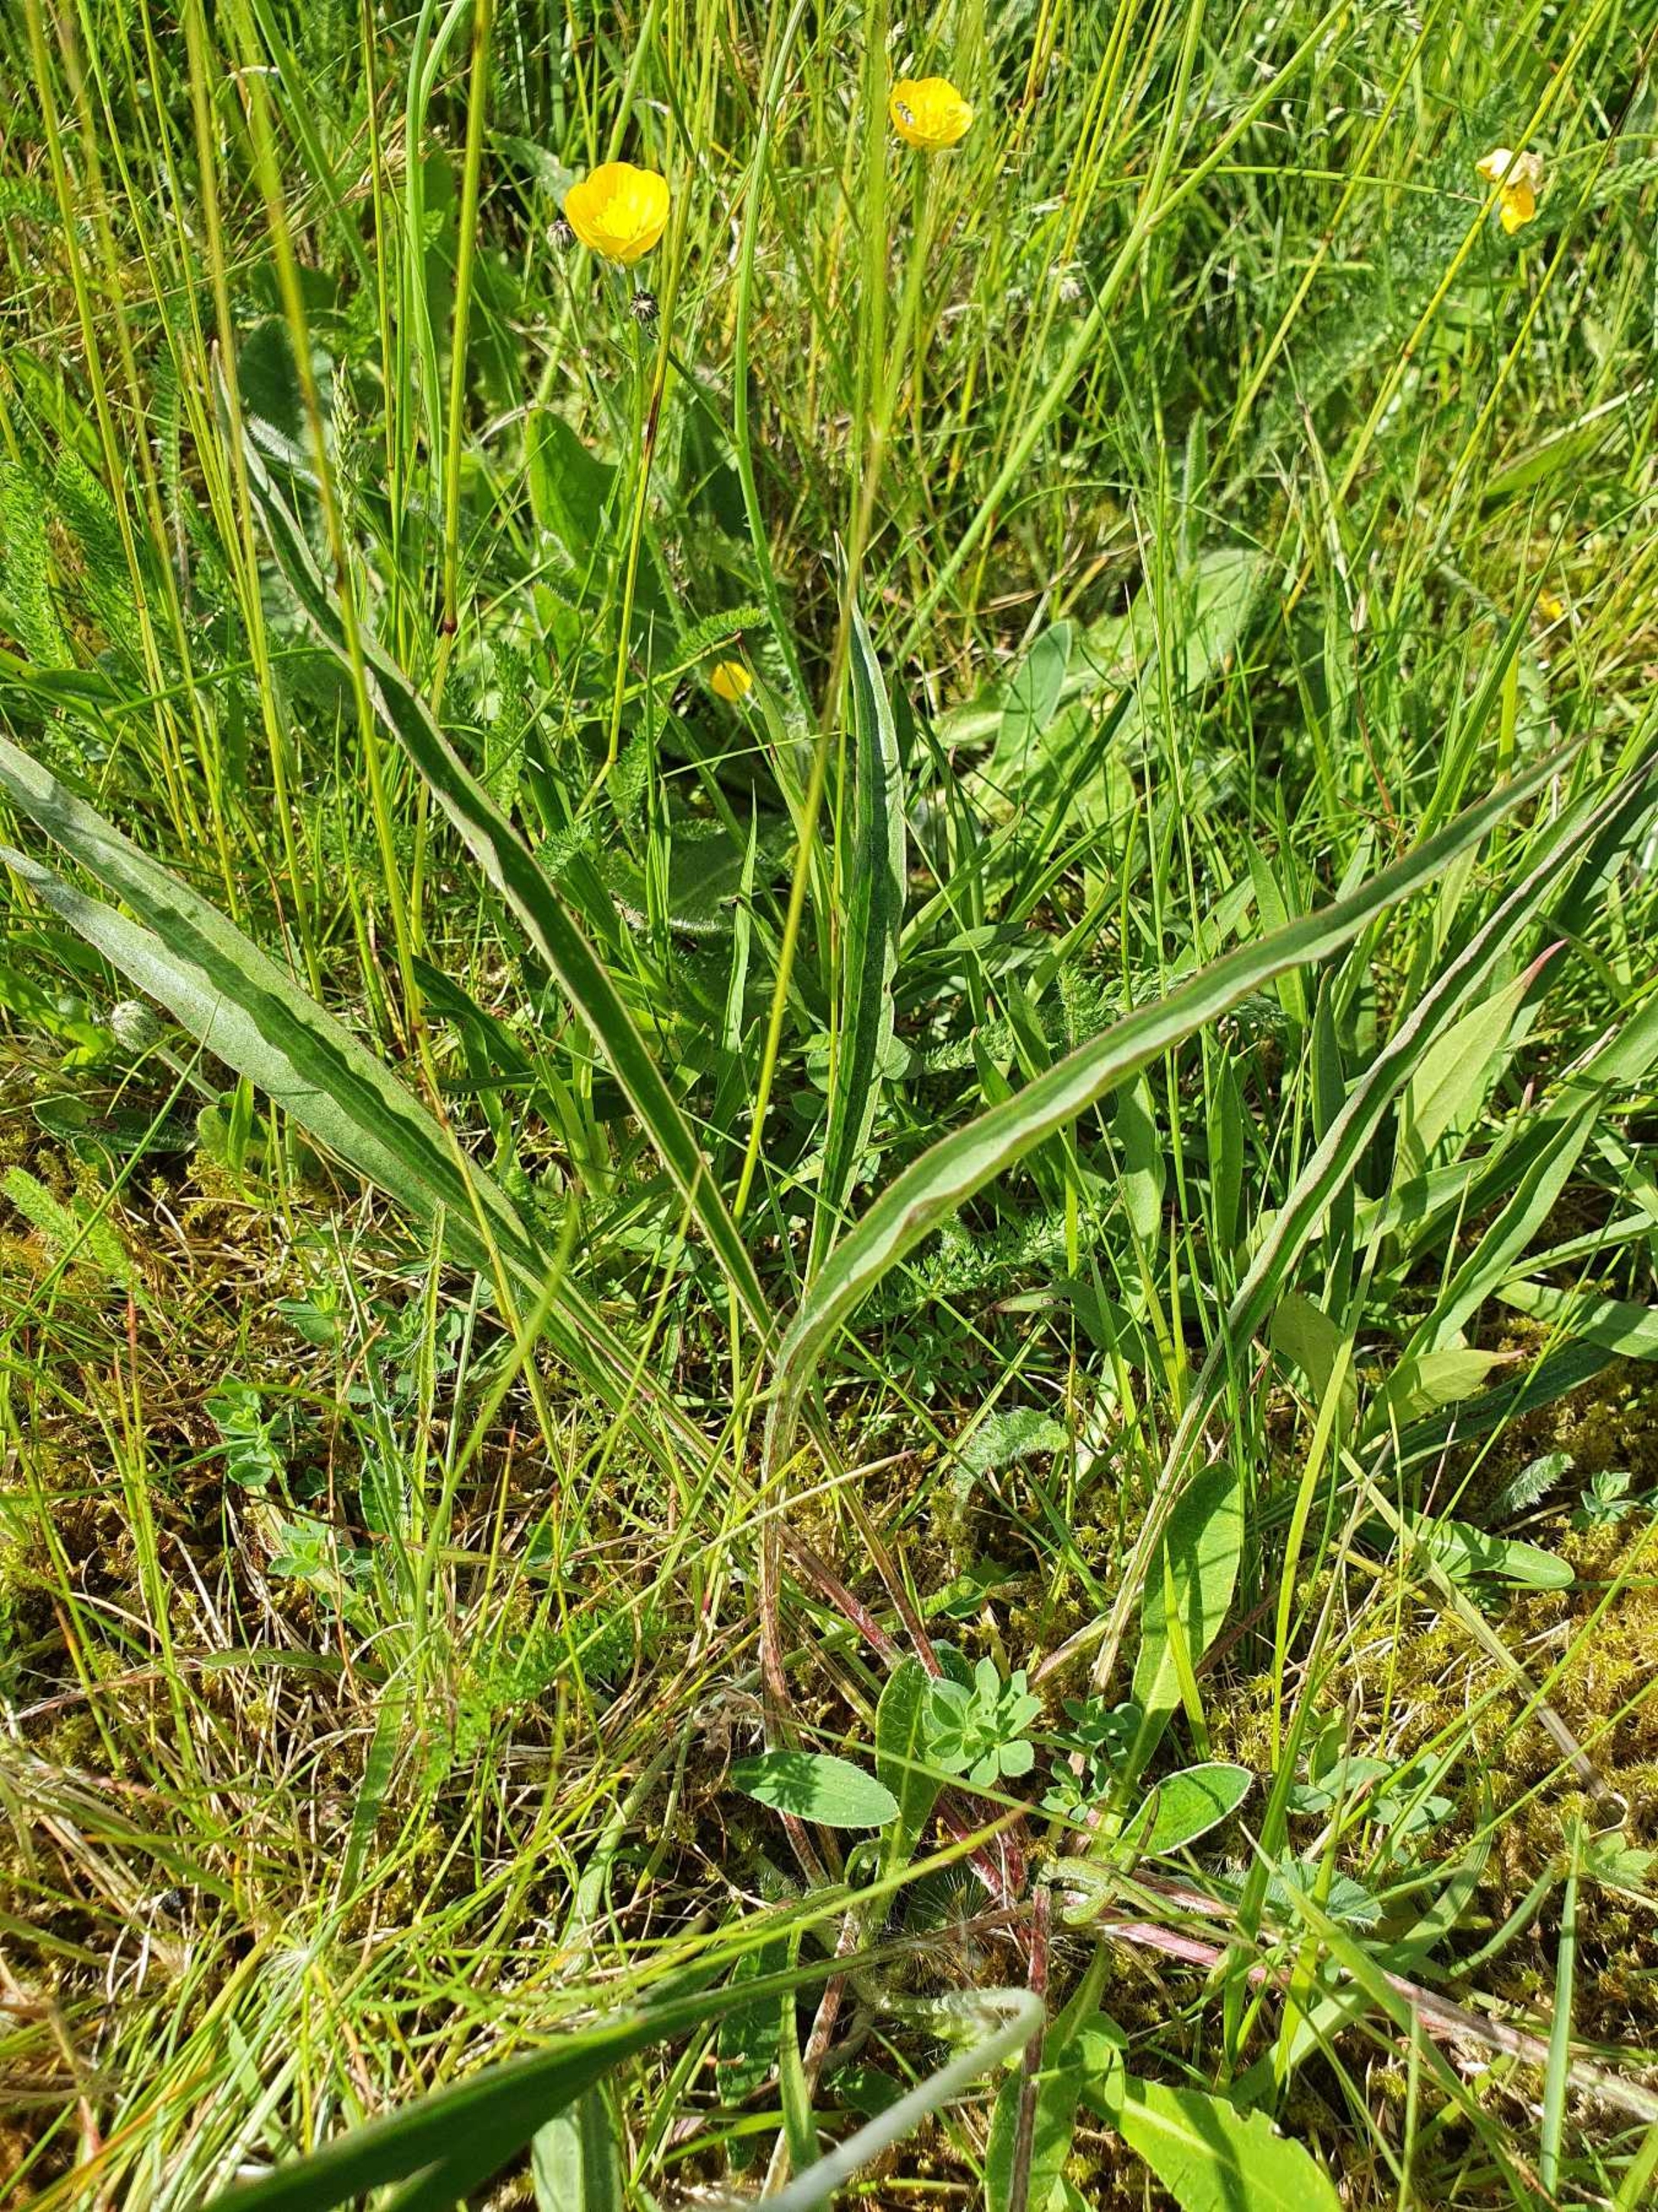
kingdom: Plantae
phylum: Tracheophyta
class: Magnoliopsida
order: Asterales
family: Asteraceae
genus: Scorzonera
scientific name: Scorzonera humilis
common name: Lav skorsoner
